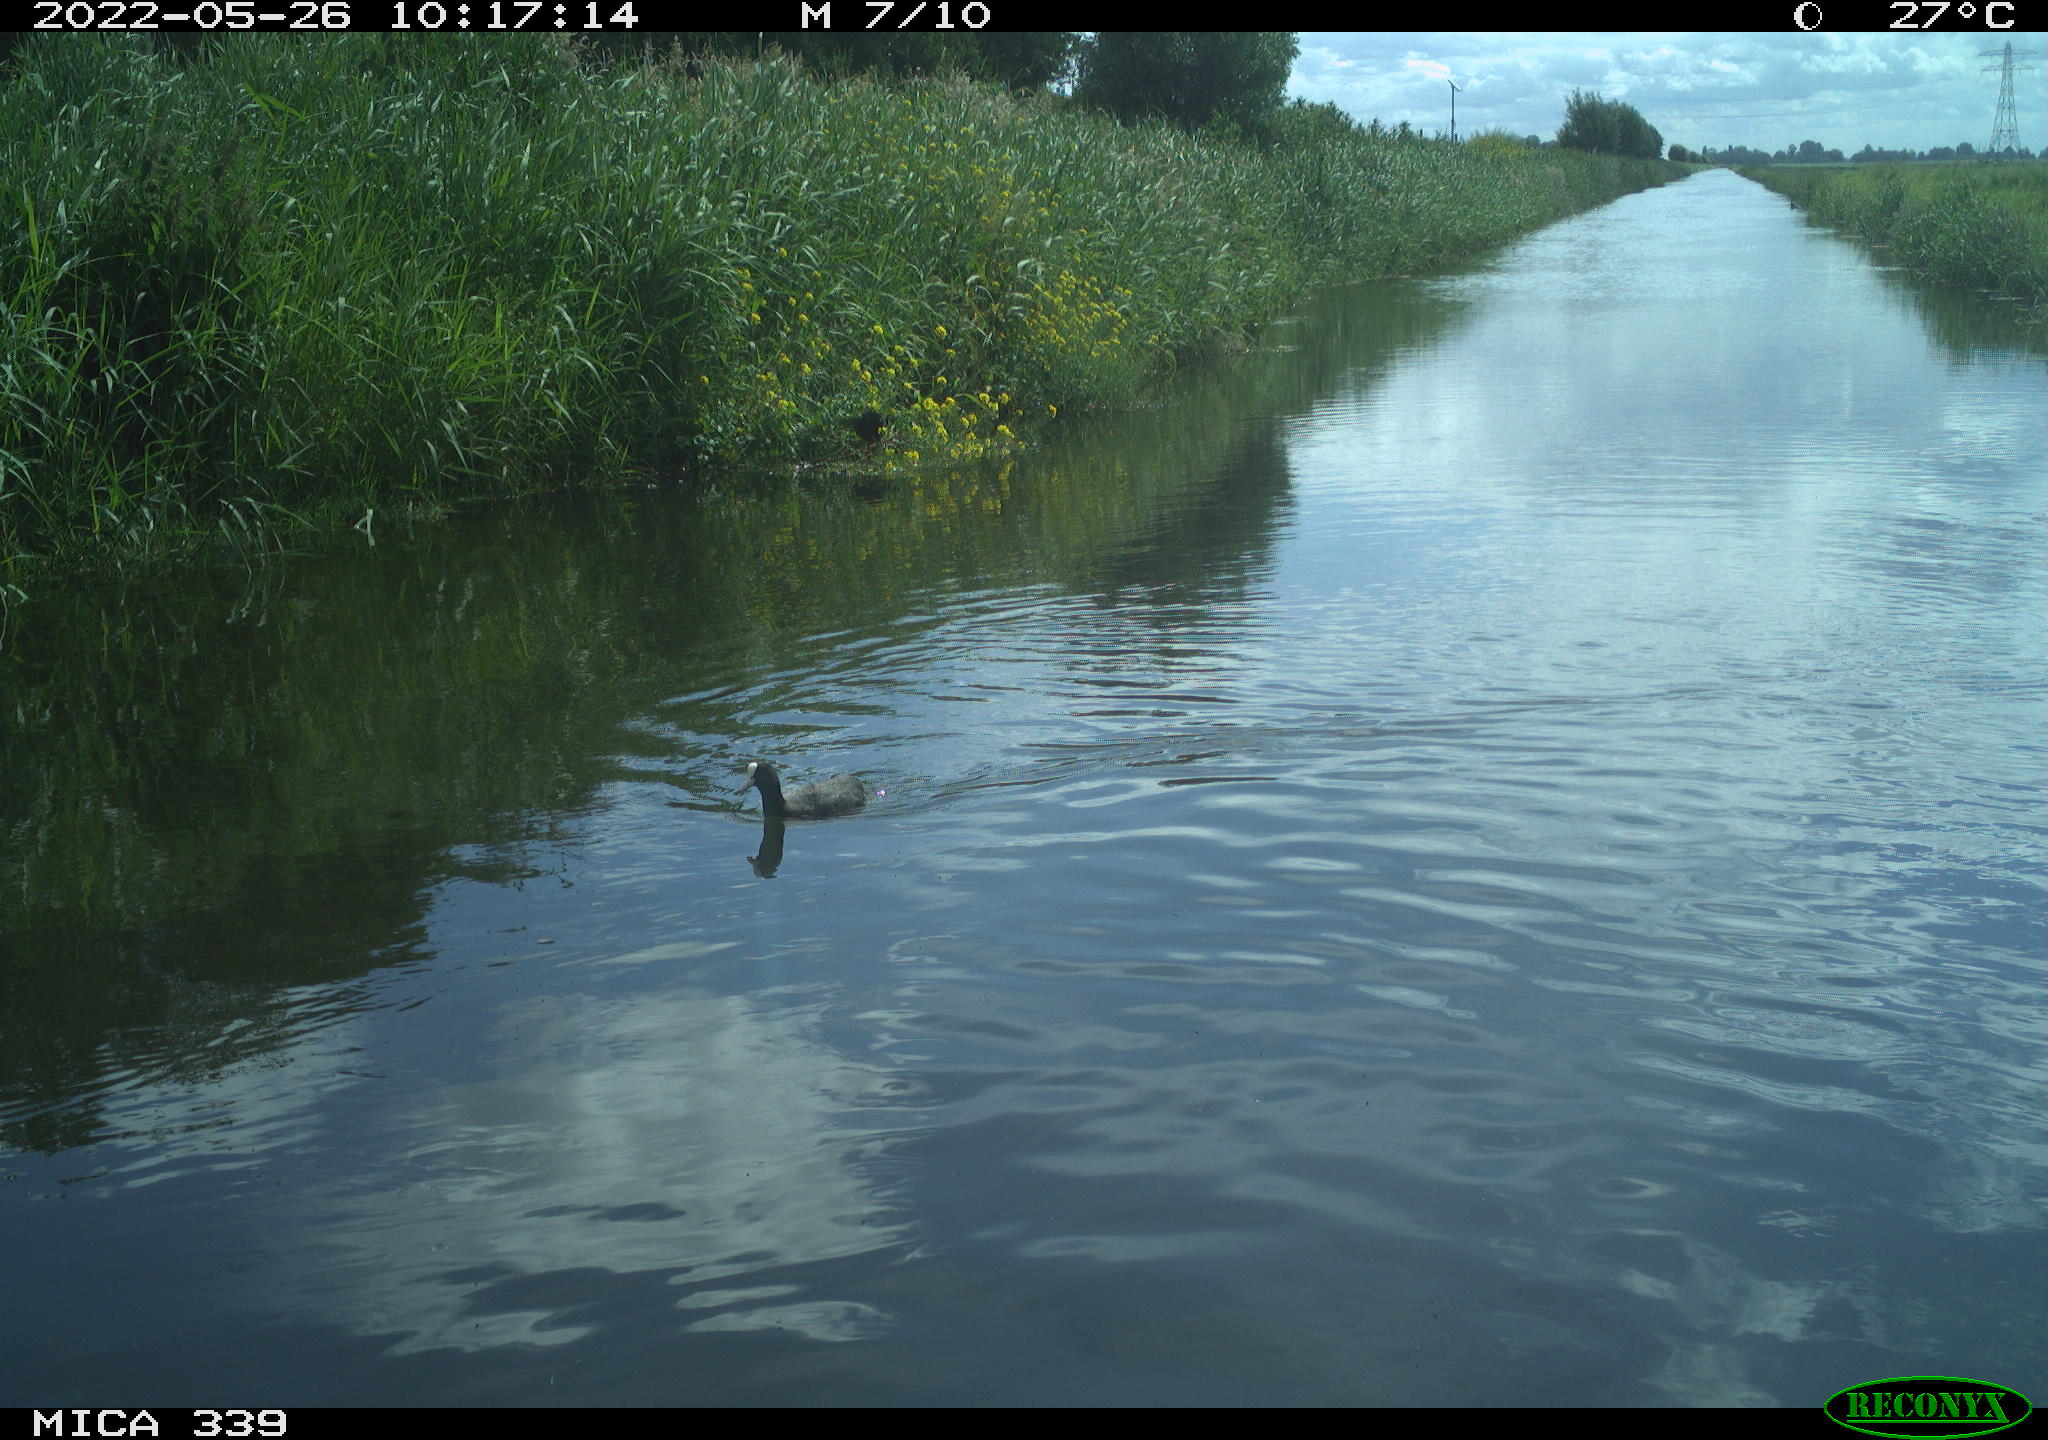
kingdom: Animalia
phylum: Chordata
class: Aves
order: Gruiformes
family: Rallidae
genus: Fulica
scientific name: Fulica atra
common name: Eurasian coot
